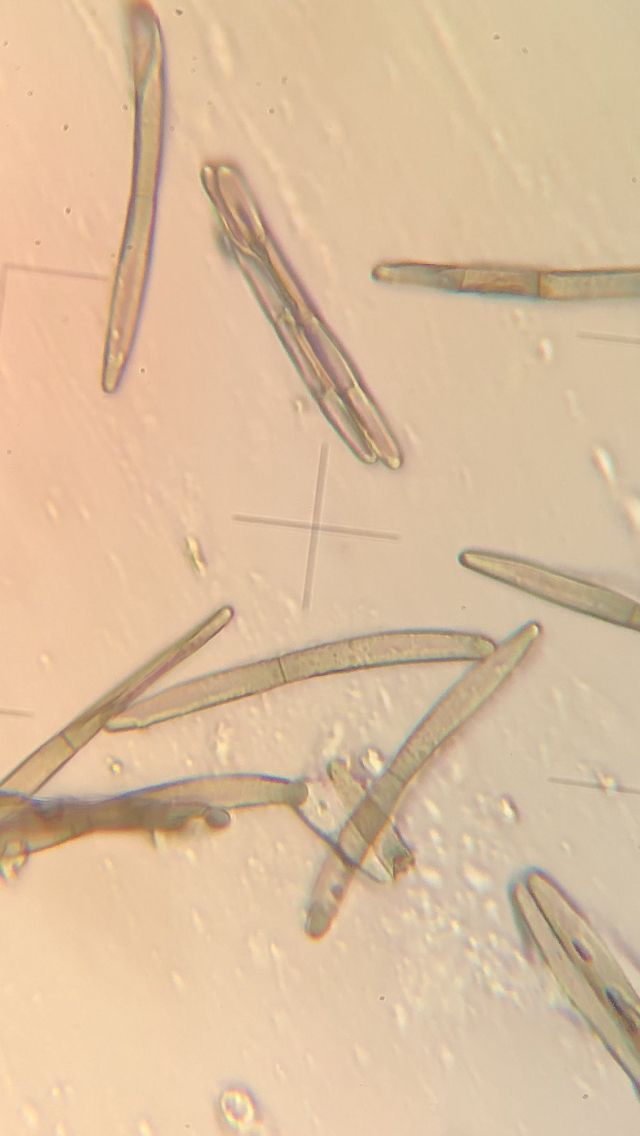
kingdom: Fungi
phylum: Ascomycota
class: Geoglossomycetes
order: Geoglossales
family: Geoglossaceae
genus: Glutinoglossum
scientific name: Glutinoglossum glutinosum
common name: slimet jordtunge
